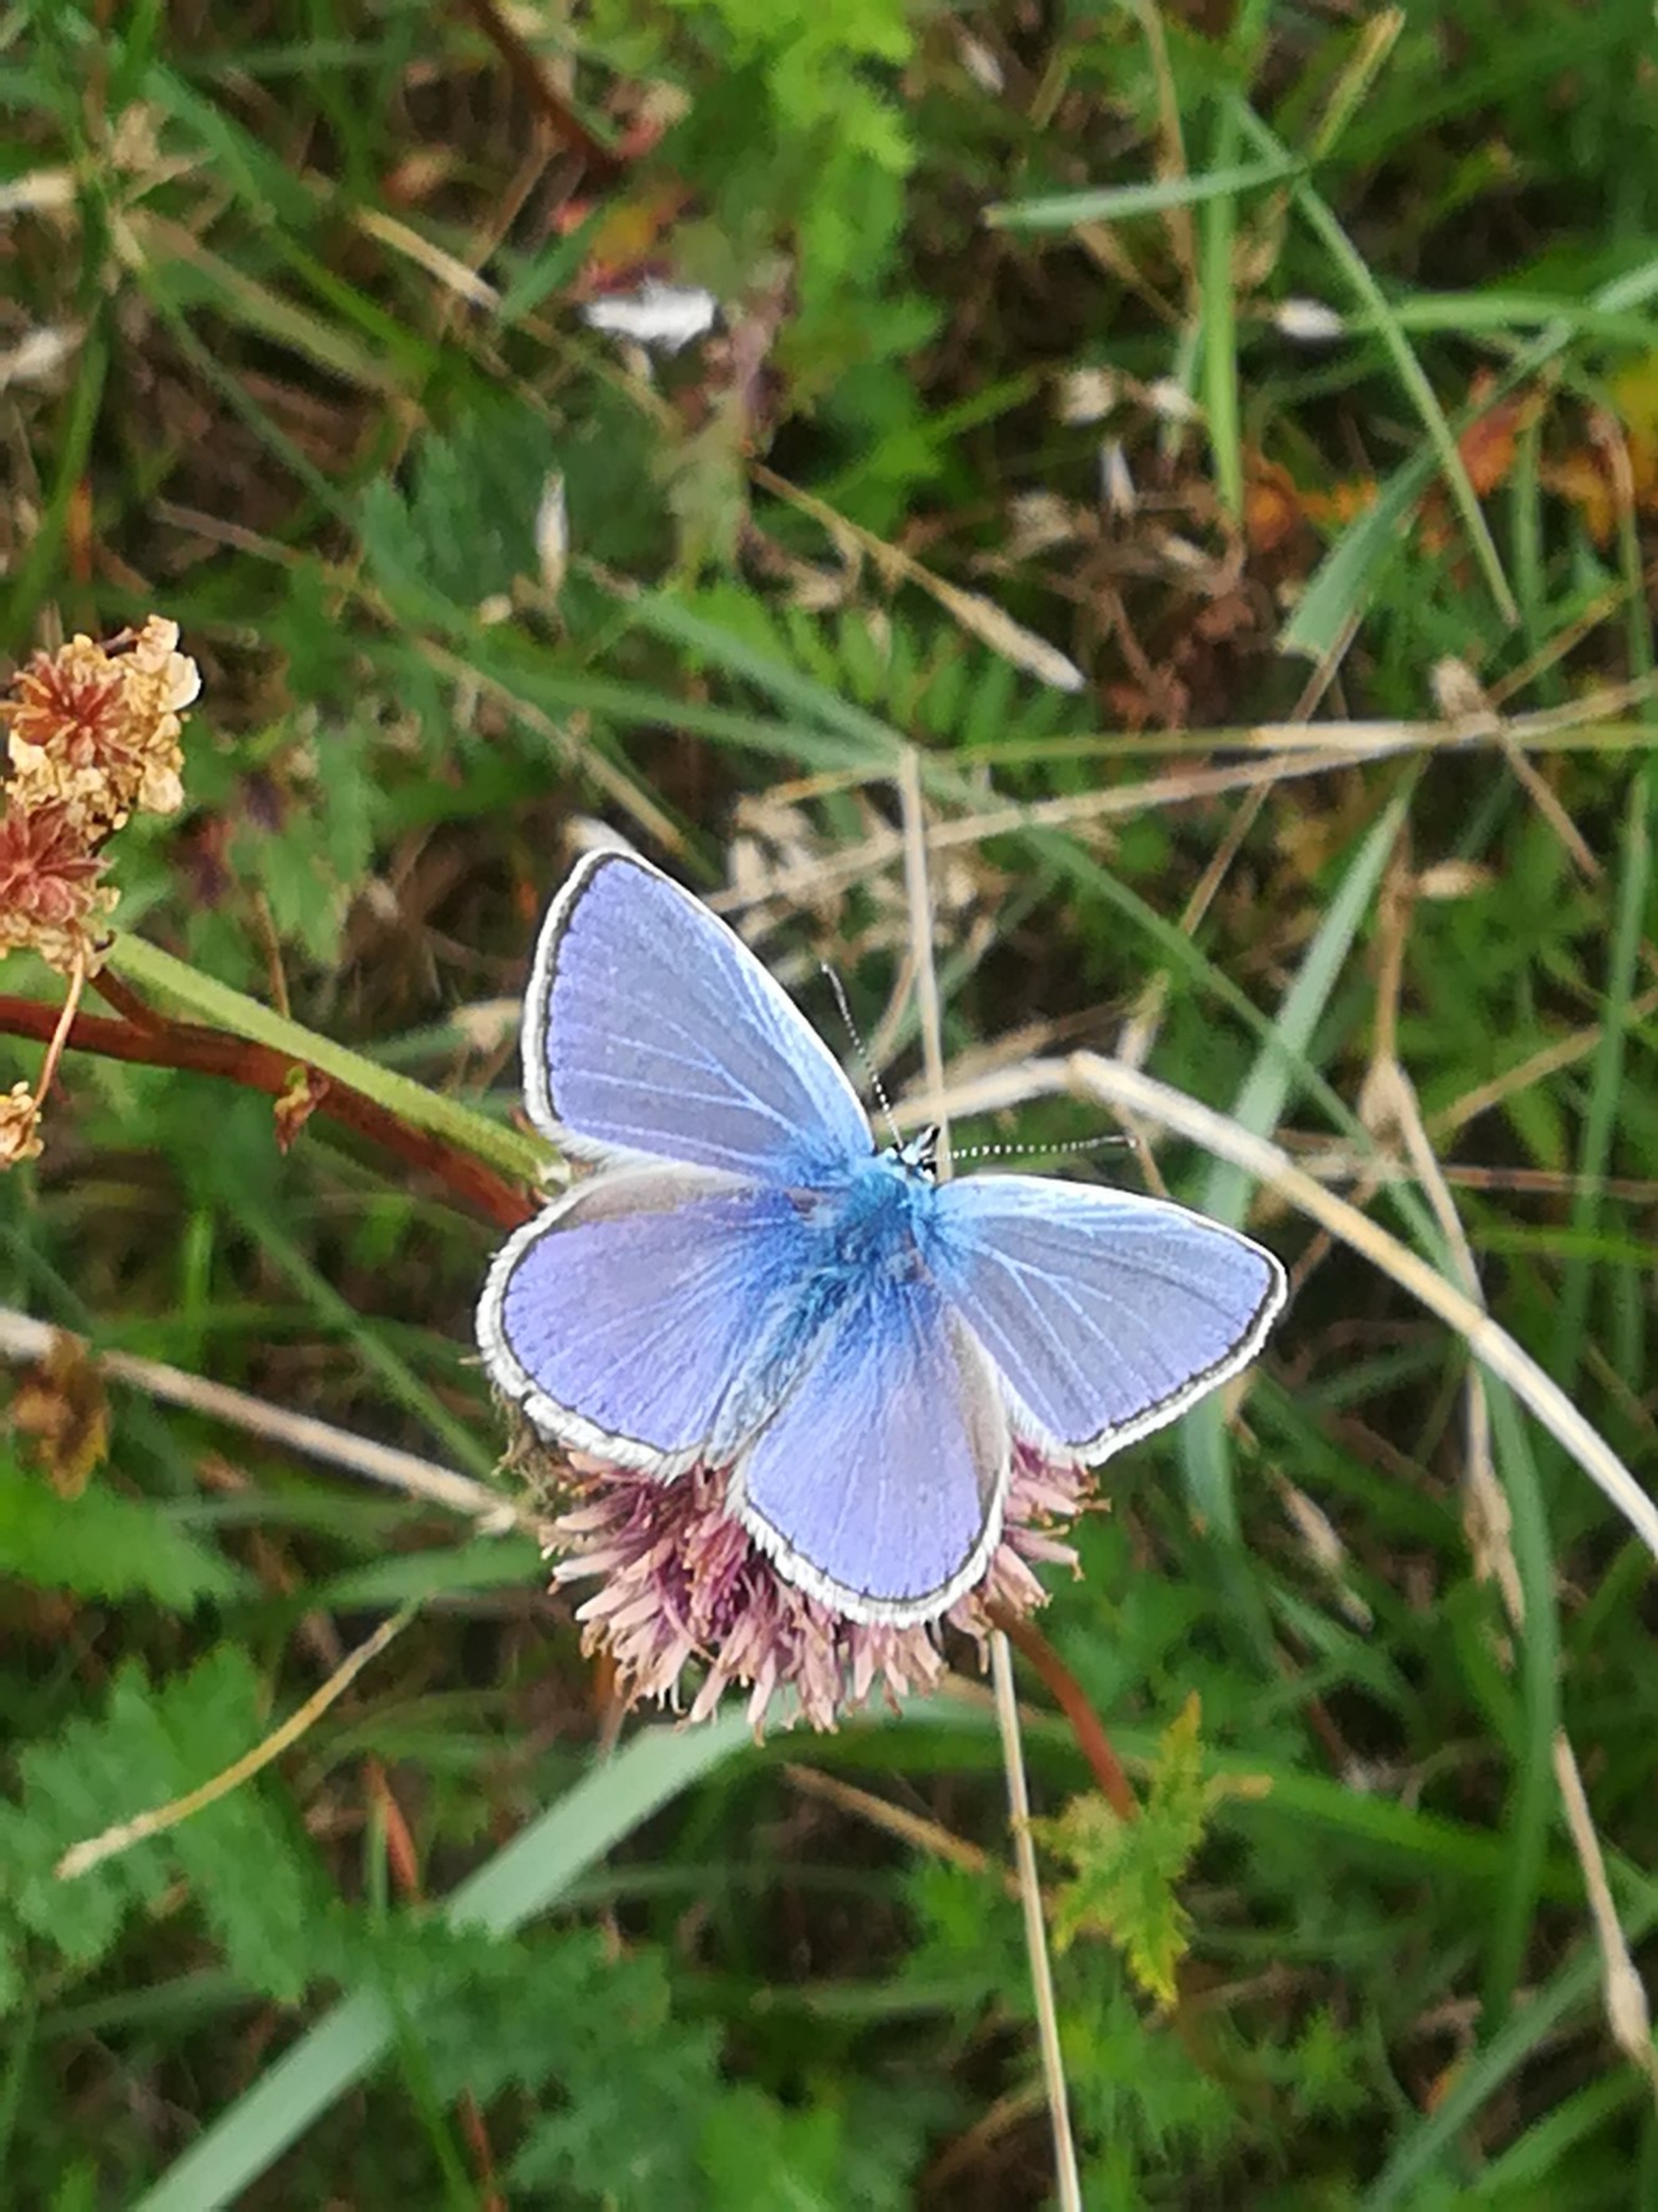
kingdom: Animalia
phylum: Arthropoda
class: Insecta
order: Lepidoptera
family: Lycaenidae
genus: Polyommatus
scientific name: Polyommatus icarus
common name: Almindelig blåfugl
